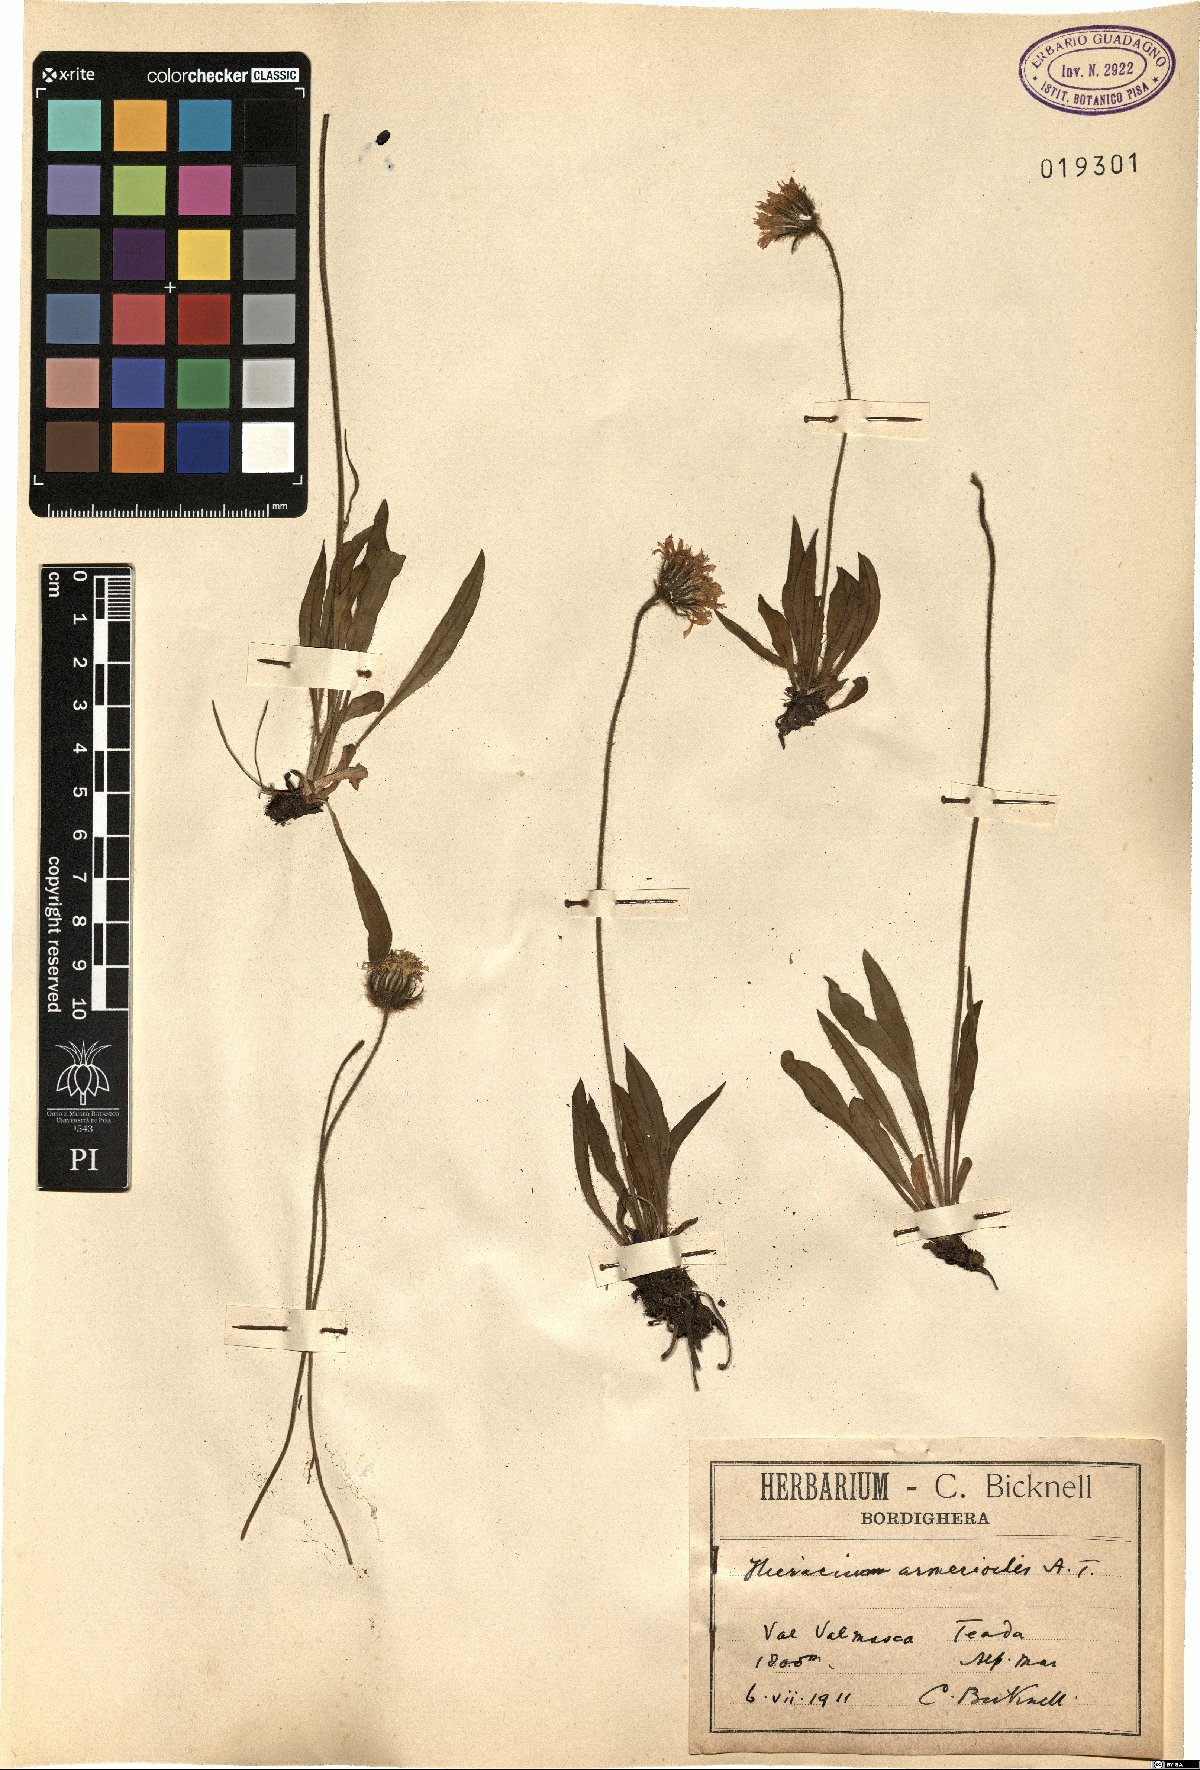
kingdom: Plantae
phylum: Tracheophyta
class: Magnoliopsida
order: Asterales
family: Asteraceae
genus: Hieracium
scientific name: Hieracium armerioides
